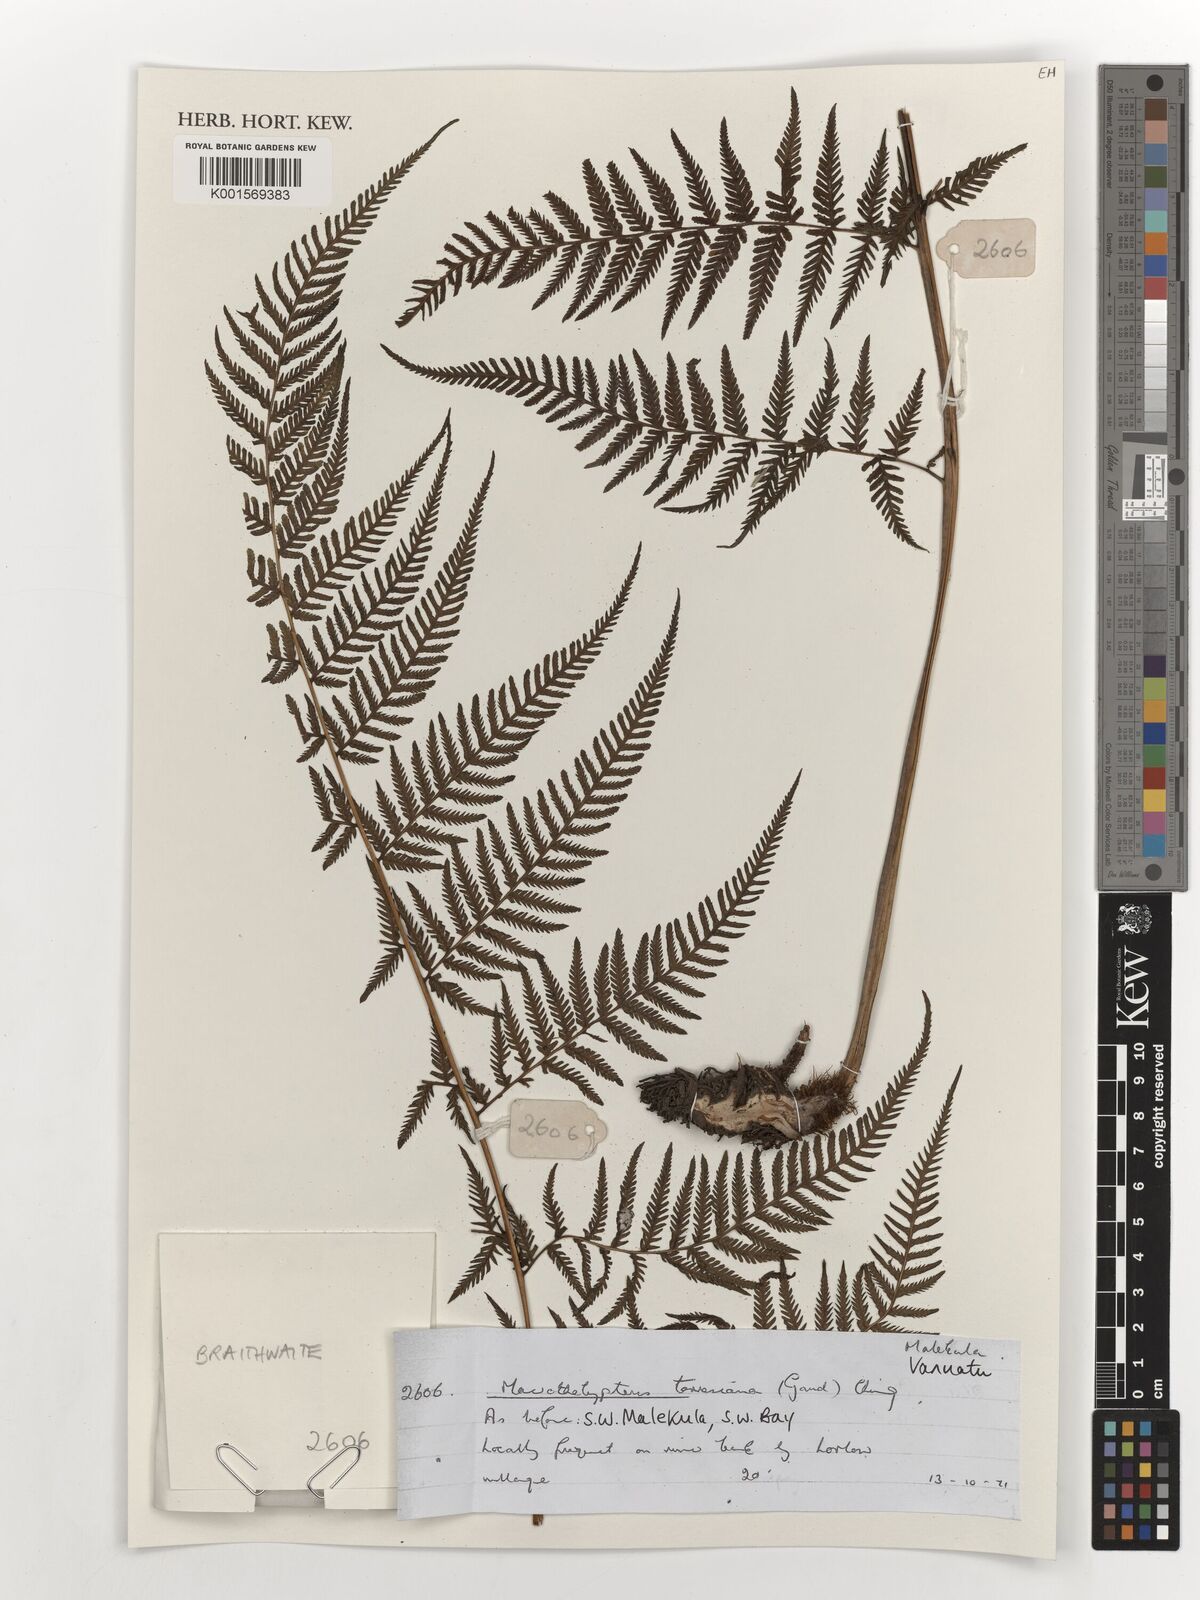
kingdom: Plantae
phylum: Tracheophyta
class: Polypodiopsida
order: Polypodiales
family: Thelypteridaceae
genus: Macrothelypteris
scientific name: Macrothelypteris torresiana
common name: Swordfern
